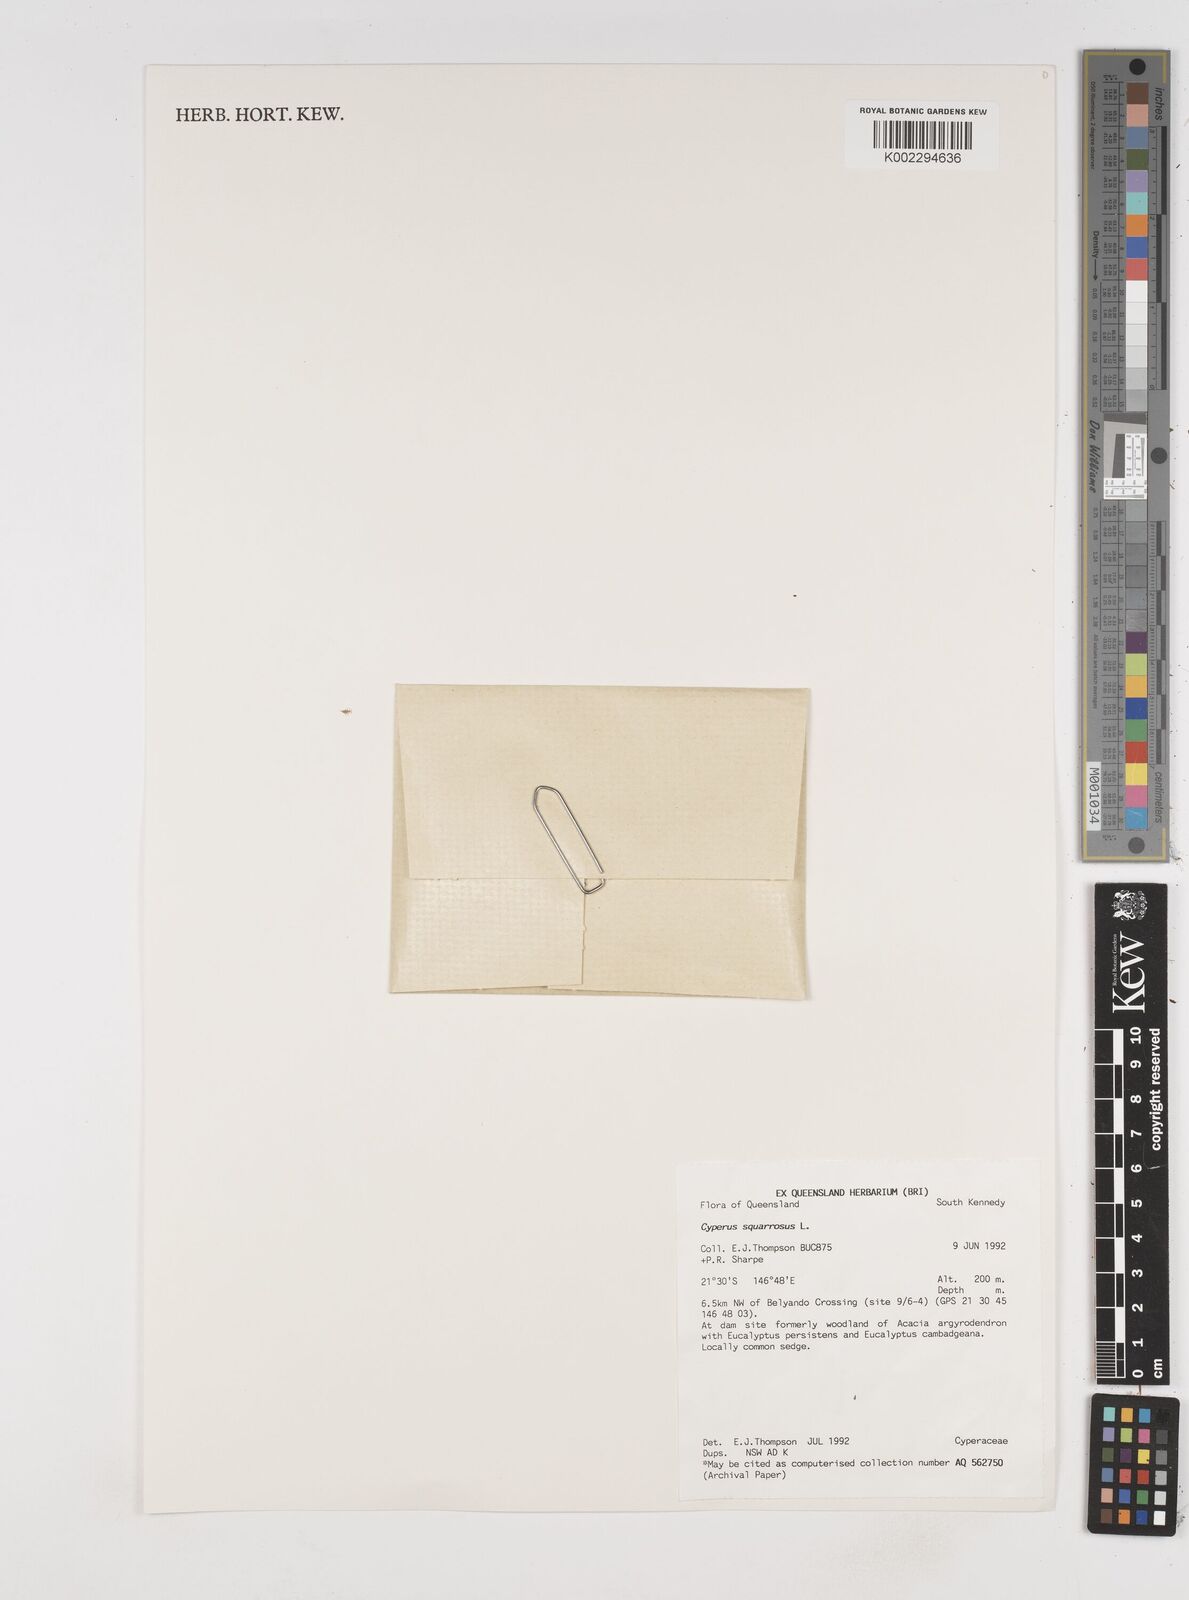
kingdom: Plantae
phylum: Tracheophyta
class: Liliopsida
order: Poales
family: Cyperaceae
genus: Cyperus
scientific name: Cyperus squarrosus
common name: Awned cyperus
